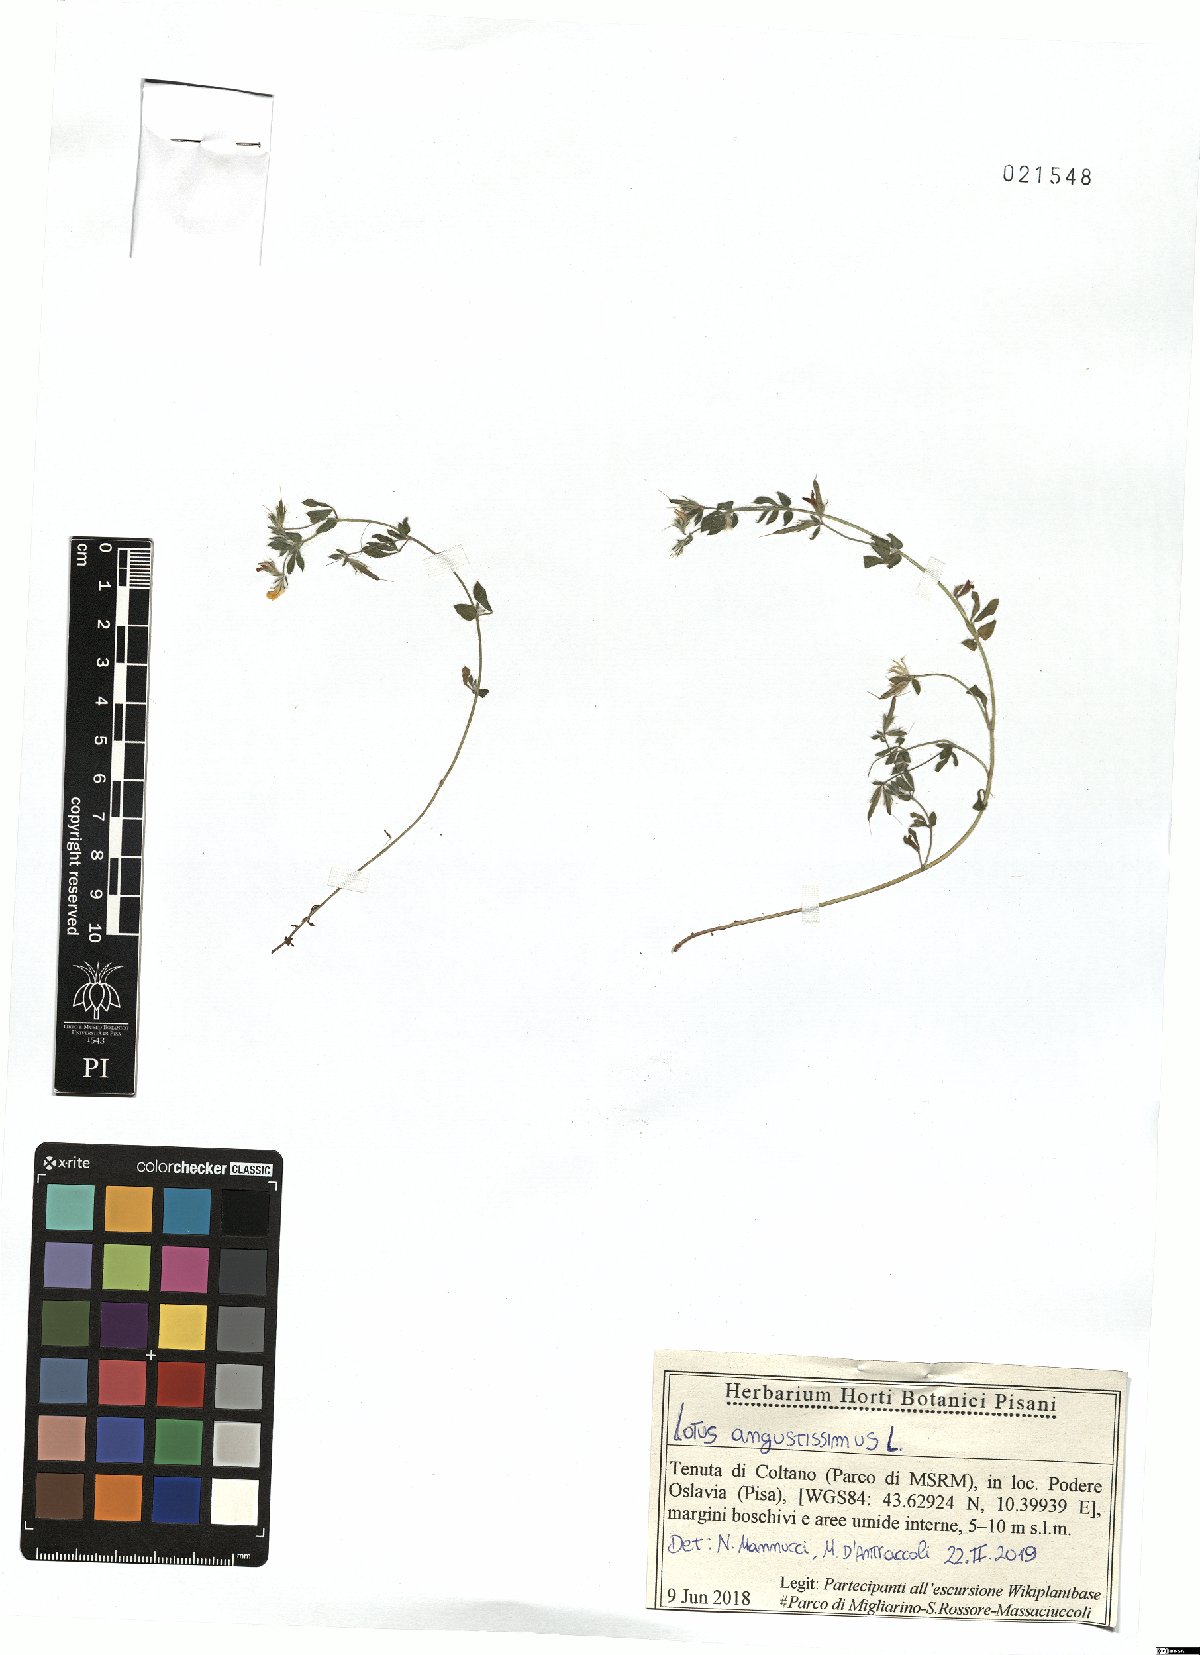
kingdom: Plantae
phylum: Tracheophyta
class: Magnoliopsida
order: Fabales
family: Fabaceae
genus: Lotus
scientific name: Lotus angustissimus
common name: Slender bird's-foot trefoil
